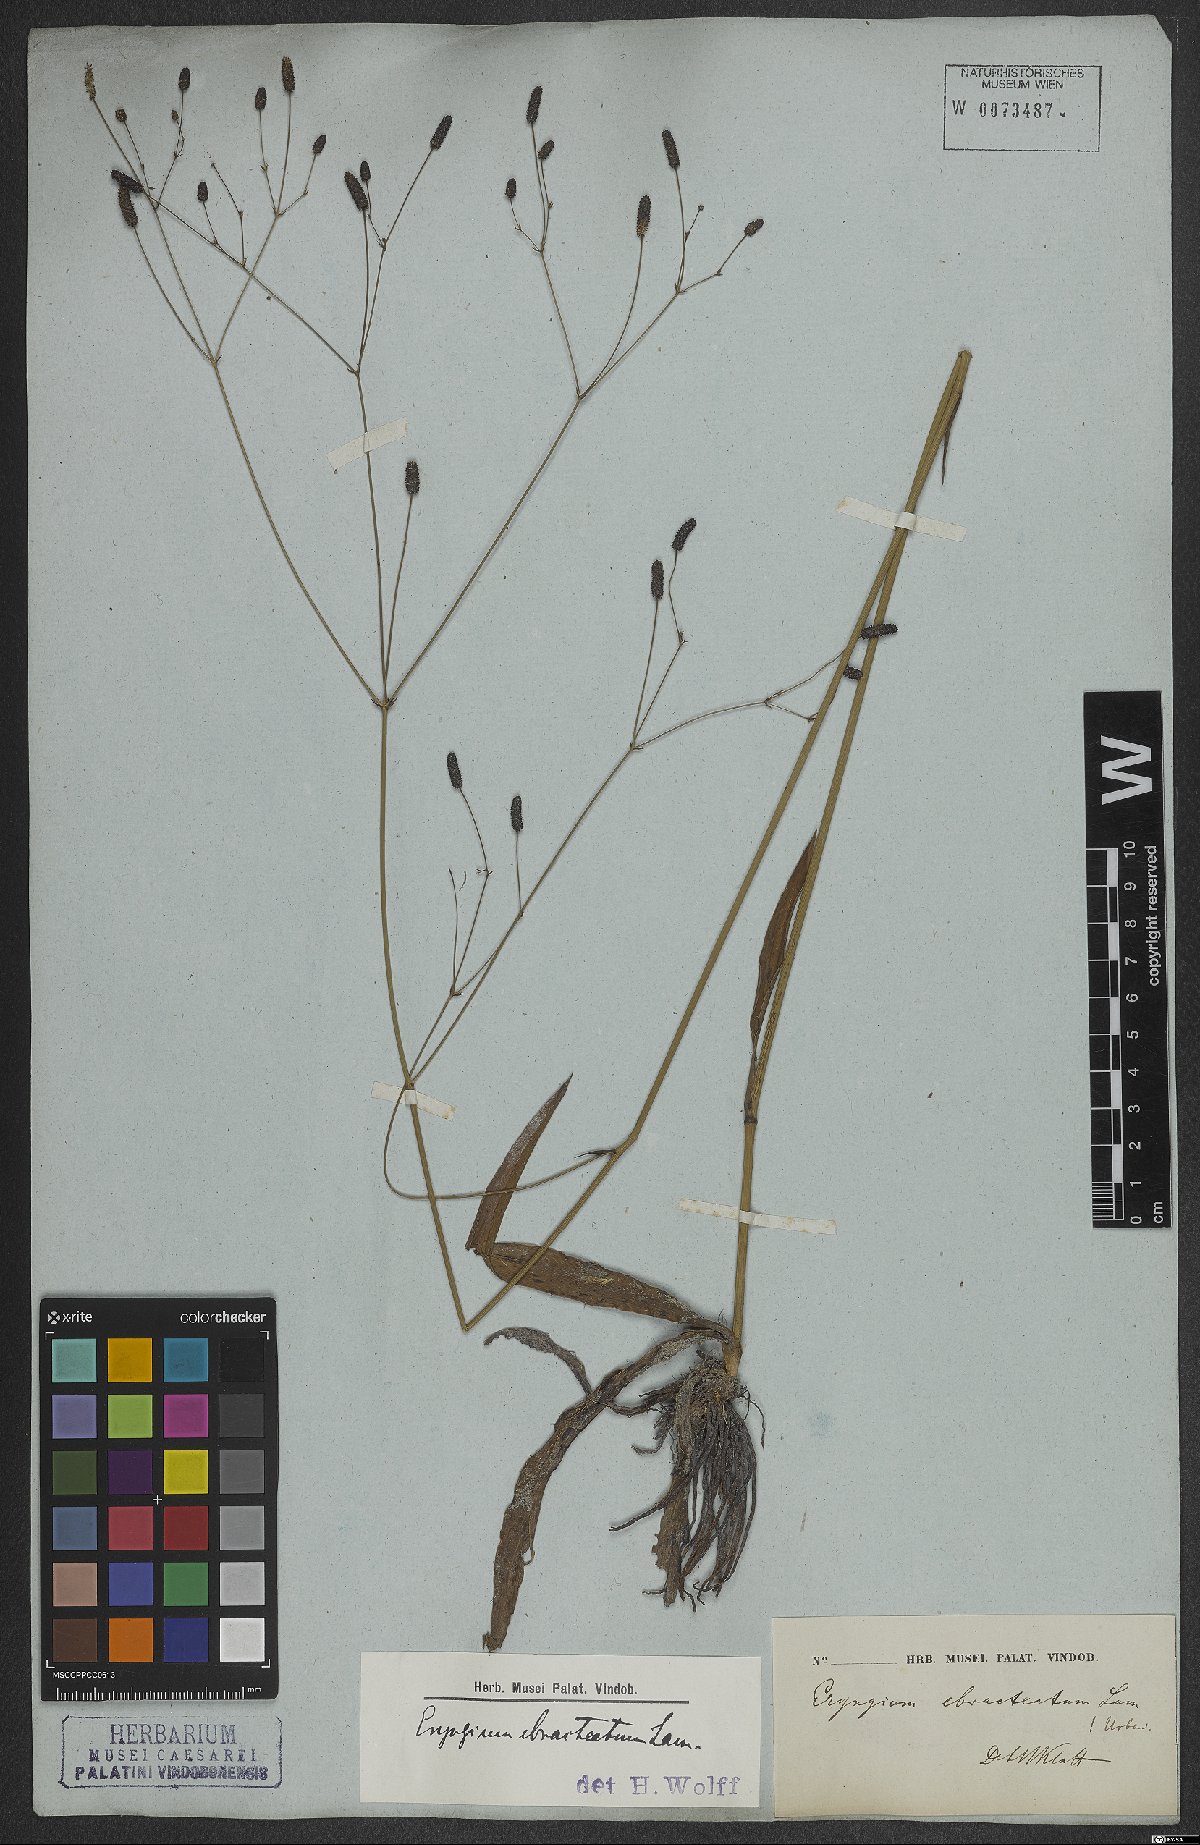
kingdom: Plantae
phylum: Tracheophyta
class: Magnoliopsida
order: Apiales
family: Apiaceae
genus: Eryngium
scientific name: Eryngium ebracteatum
